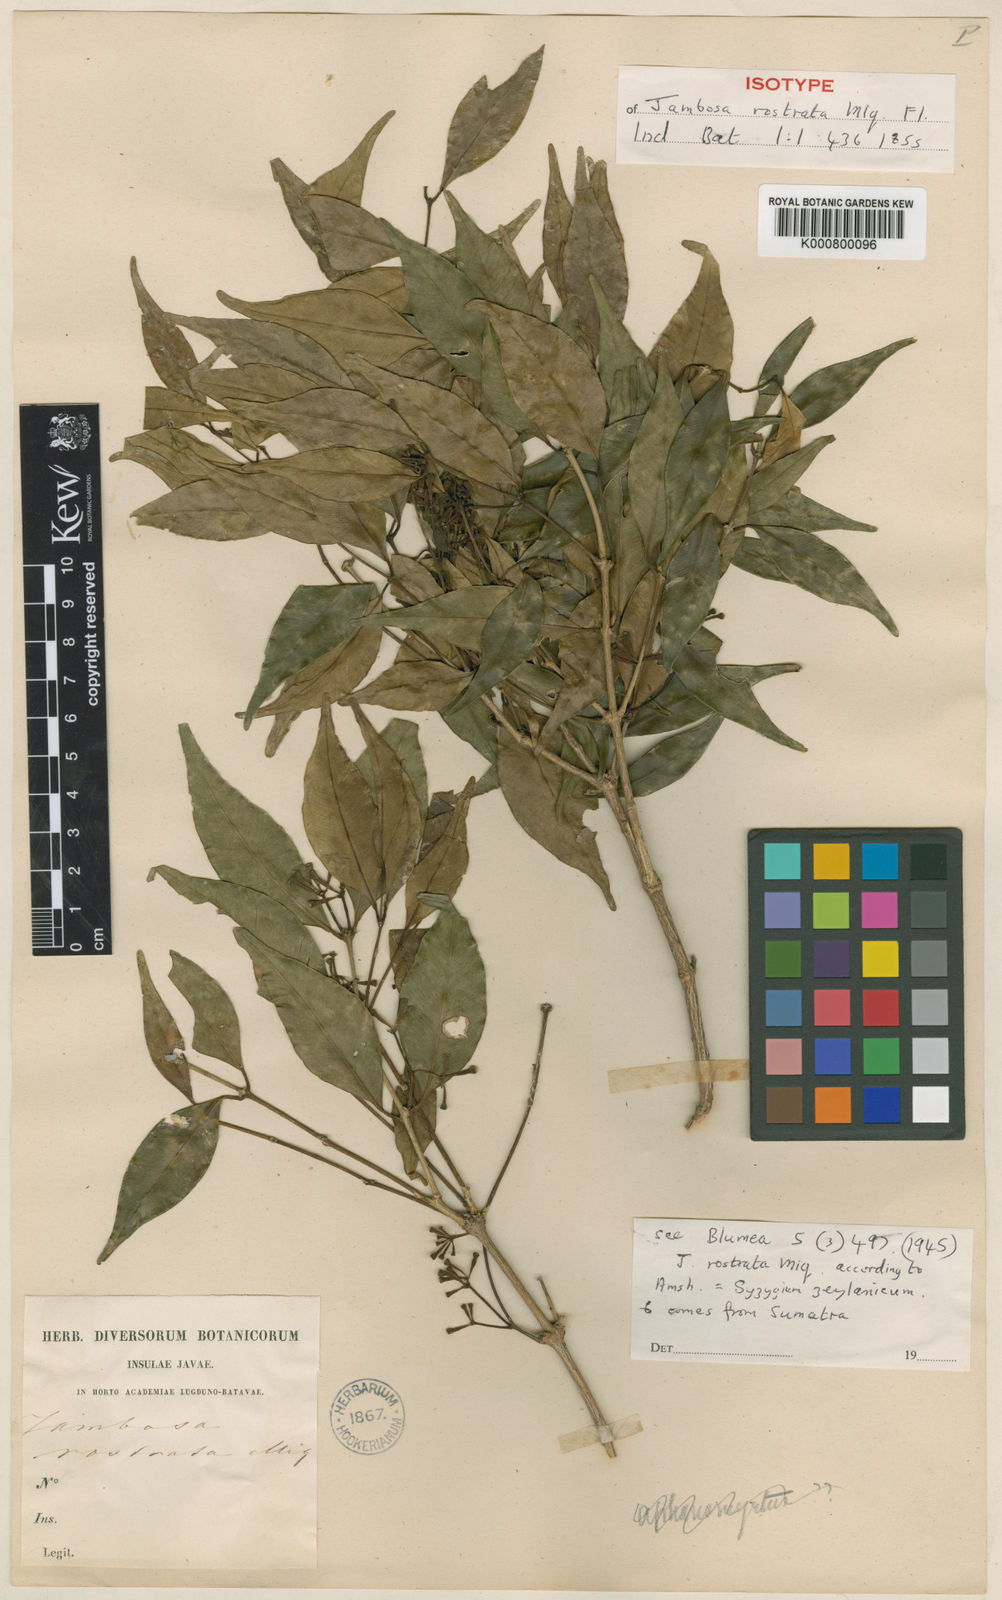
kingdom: Plantae
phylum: Tracheophyta
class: Magnoliopsida
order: Myrtales
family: Myrtaceae
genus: Syzygium
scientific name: Syzygium rostratum
